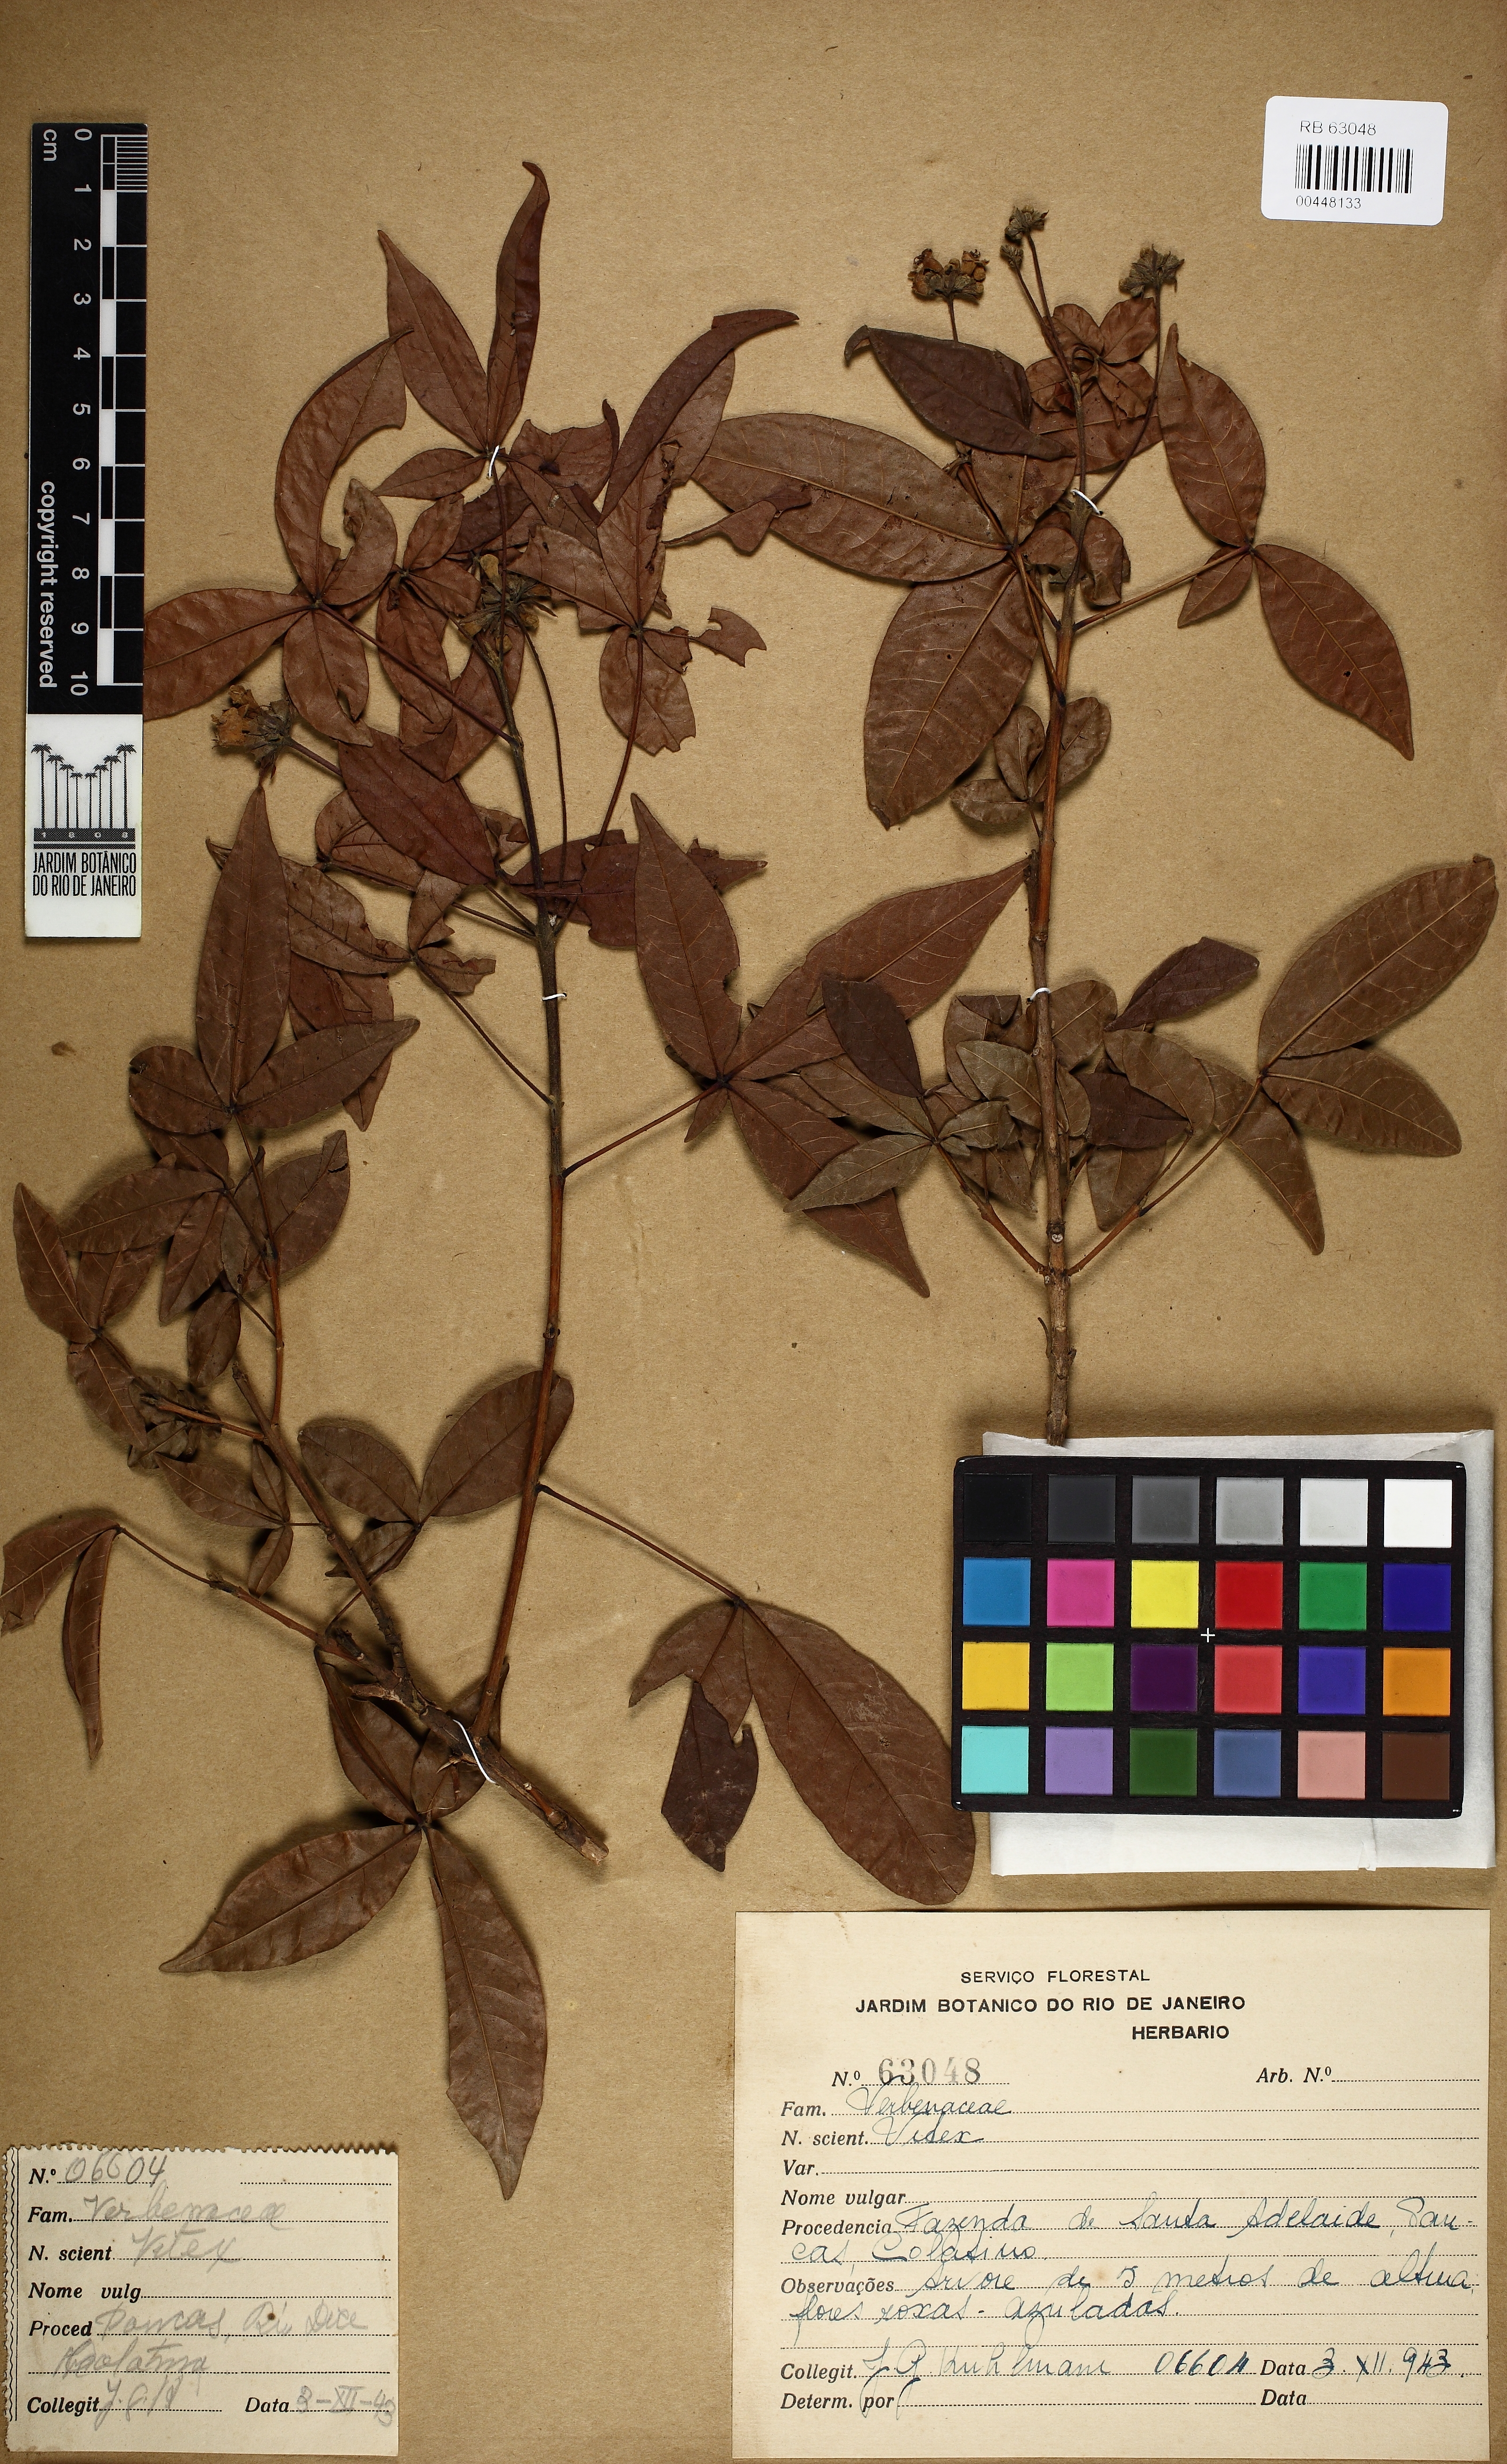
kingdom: Plantae
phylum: Tracheophyta
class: Magnoliopsida
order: Sapindales
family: Sapindaceae
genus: Allophylus
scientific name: Allophylus strictus
